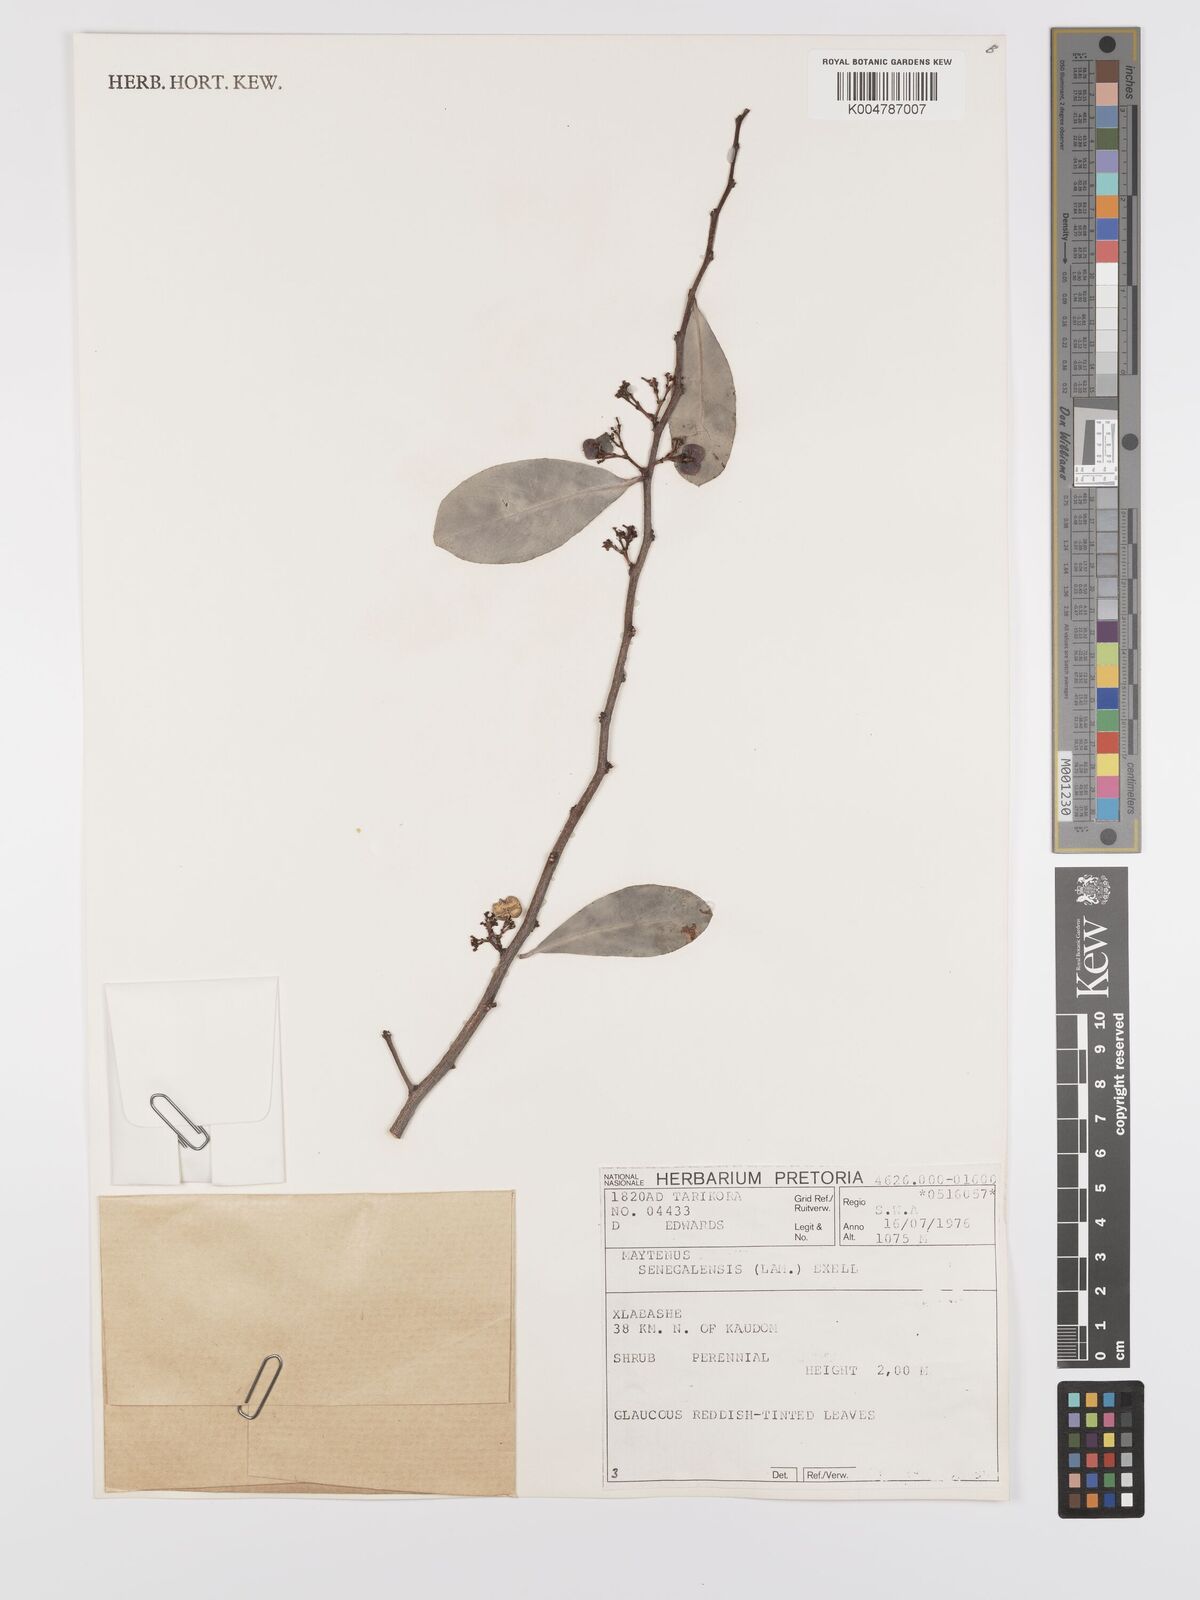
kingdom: Plantae
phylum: Tracheophyta
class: Magnoliopsida
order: Celastrales
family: Celastraceae
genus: Gymnosporia
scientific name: Gymnosporia senegalensis
